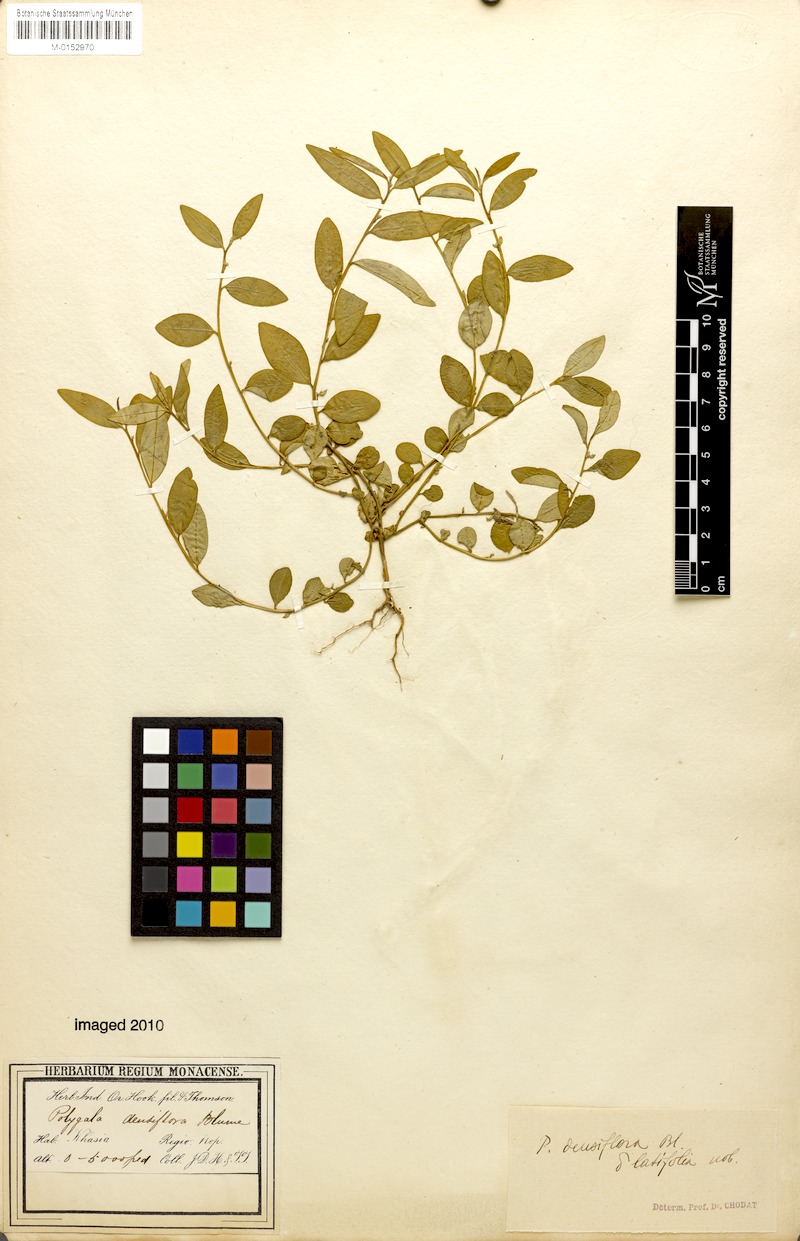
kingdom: Plantae
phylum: Tracheophyta
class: Magnoliopsida
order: Fabales
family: Polygalaceae
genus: Polygala
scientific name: Polygala glomerata
